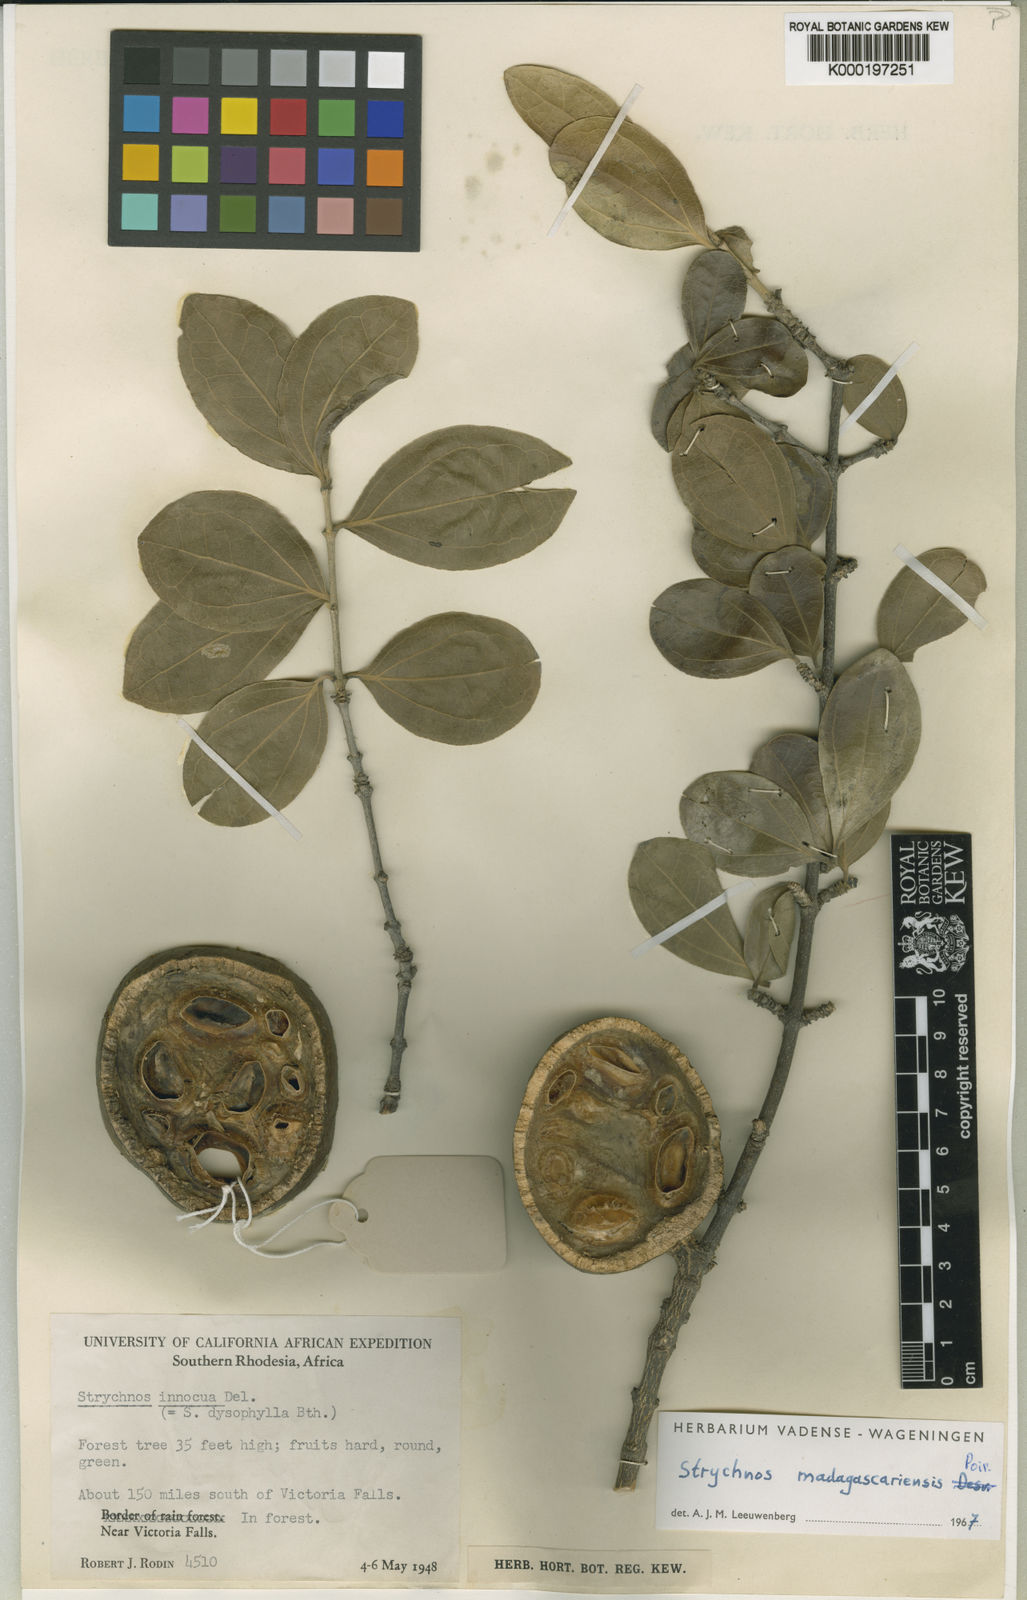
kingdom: Plantae
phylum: Tracheophyta
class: Magnoliopsida
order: Gentianales
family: Loganiaceae
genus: Strychnos
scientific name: Strychnos madagascariensis
